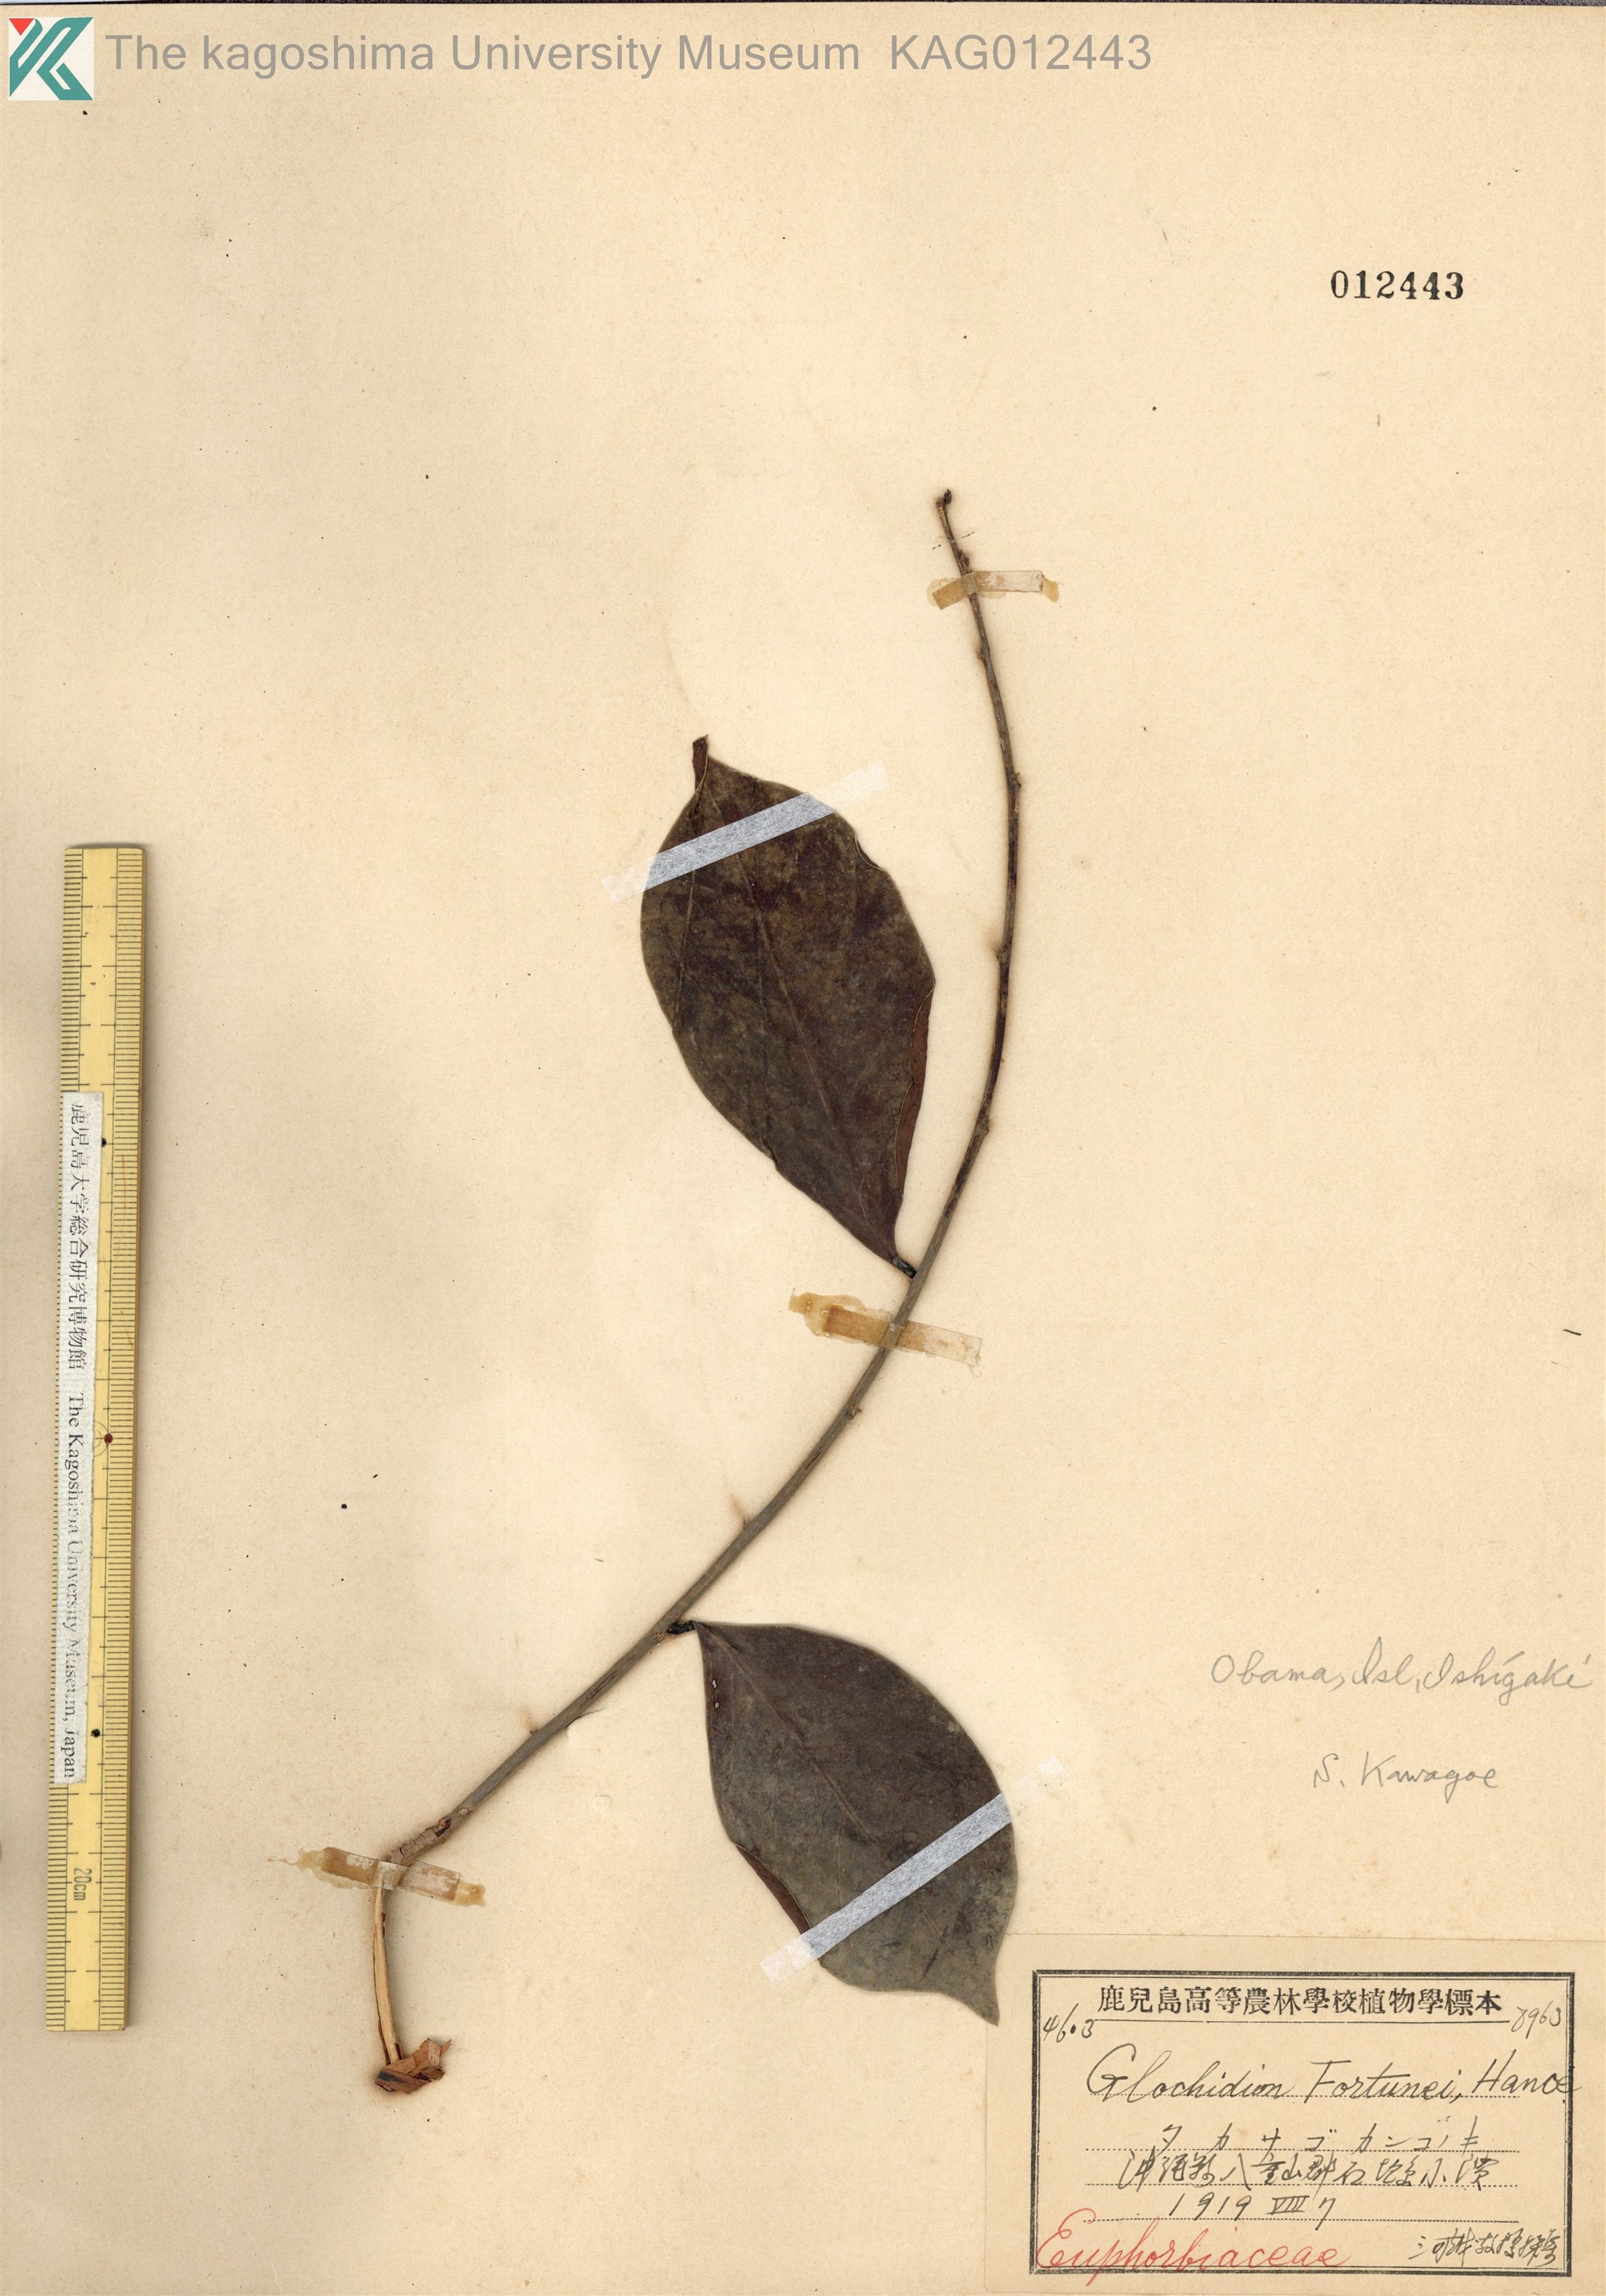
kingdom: Plantae
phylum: Tracheophyta
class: Magnoliopsida
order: Malpighiales
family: Phyllanthaceae
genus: Glochidion
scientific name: Glochidion rubrum
